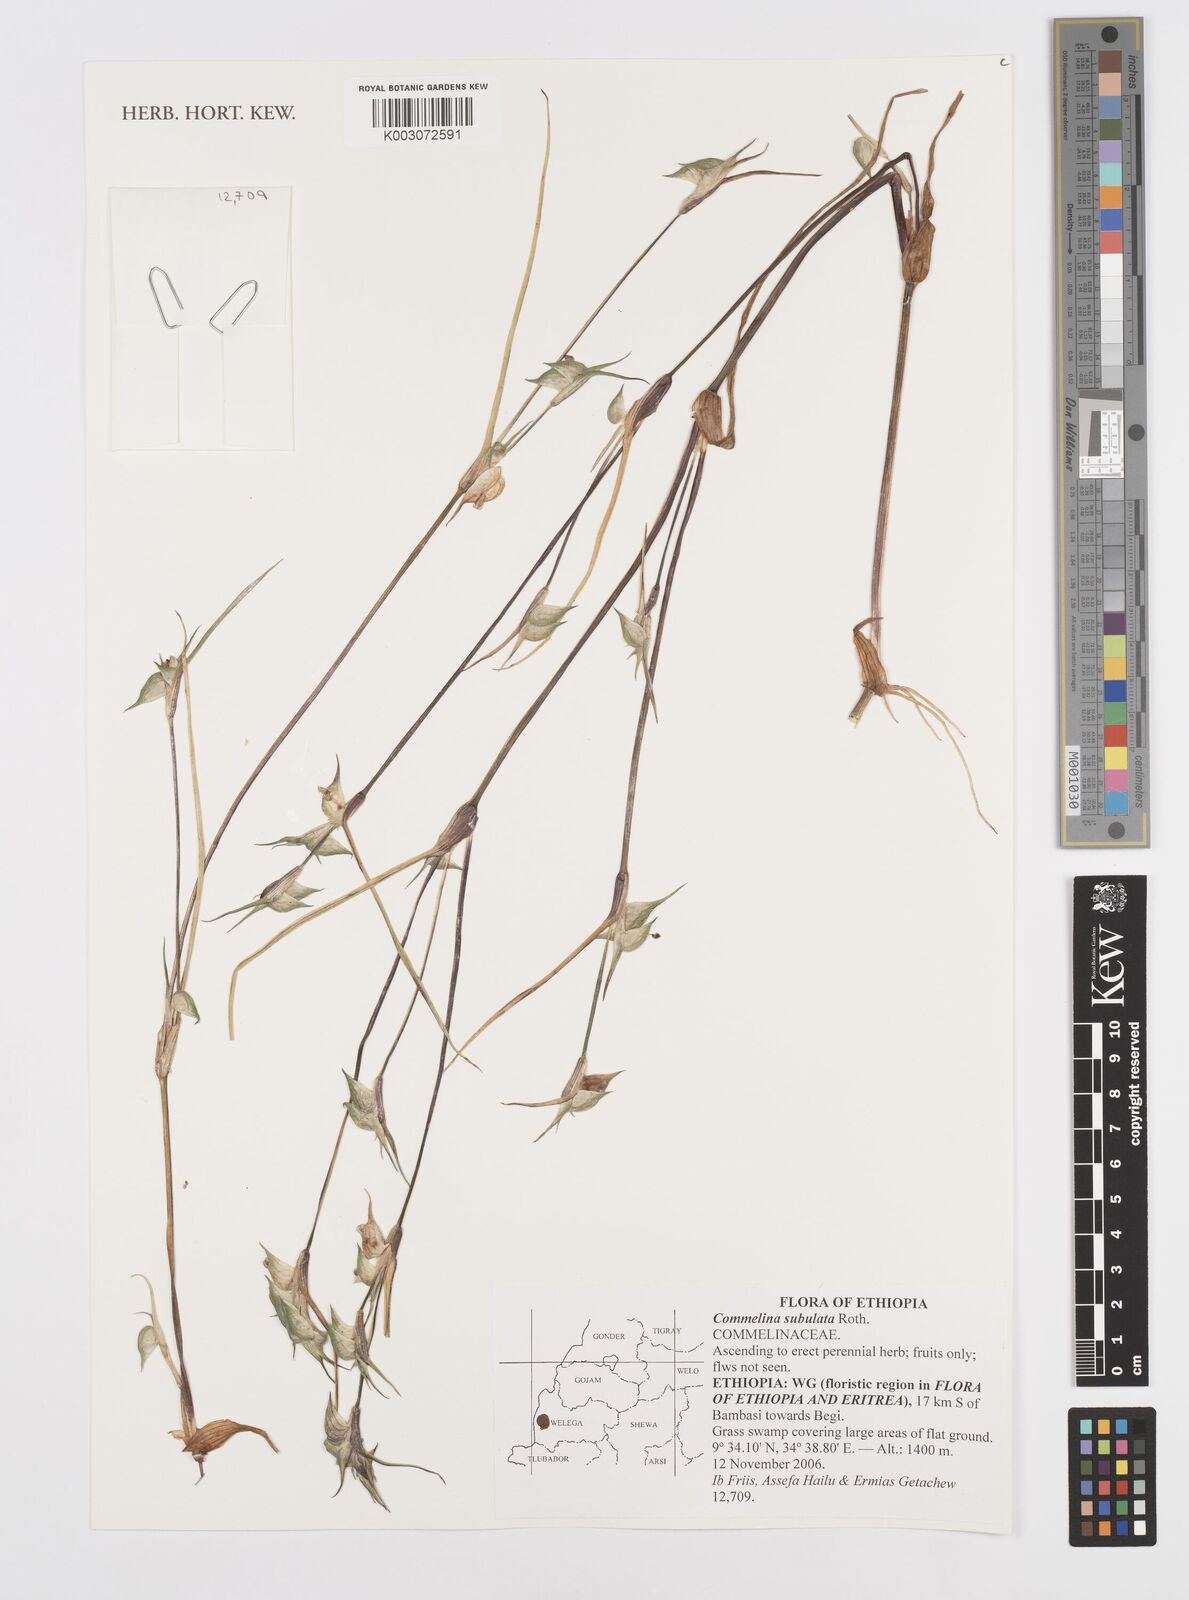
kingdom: Plantae
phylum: Tracheophyta
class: Liliopsida
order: Commelinales
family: Commelinaceae
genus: Commelina
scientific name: Commelina subulata
